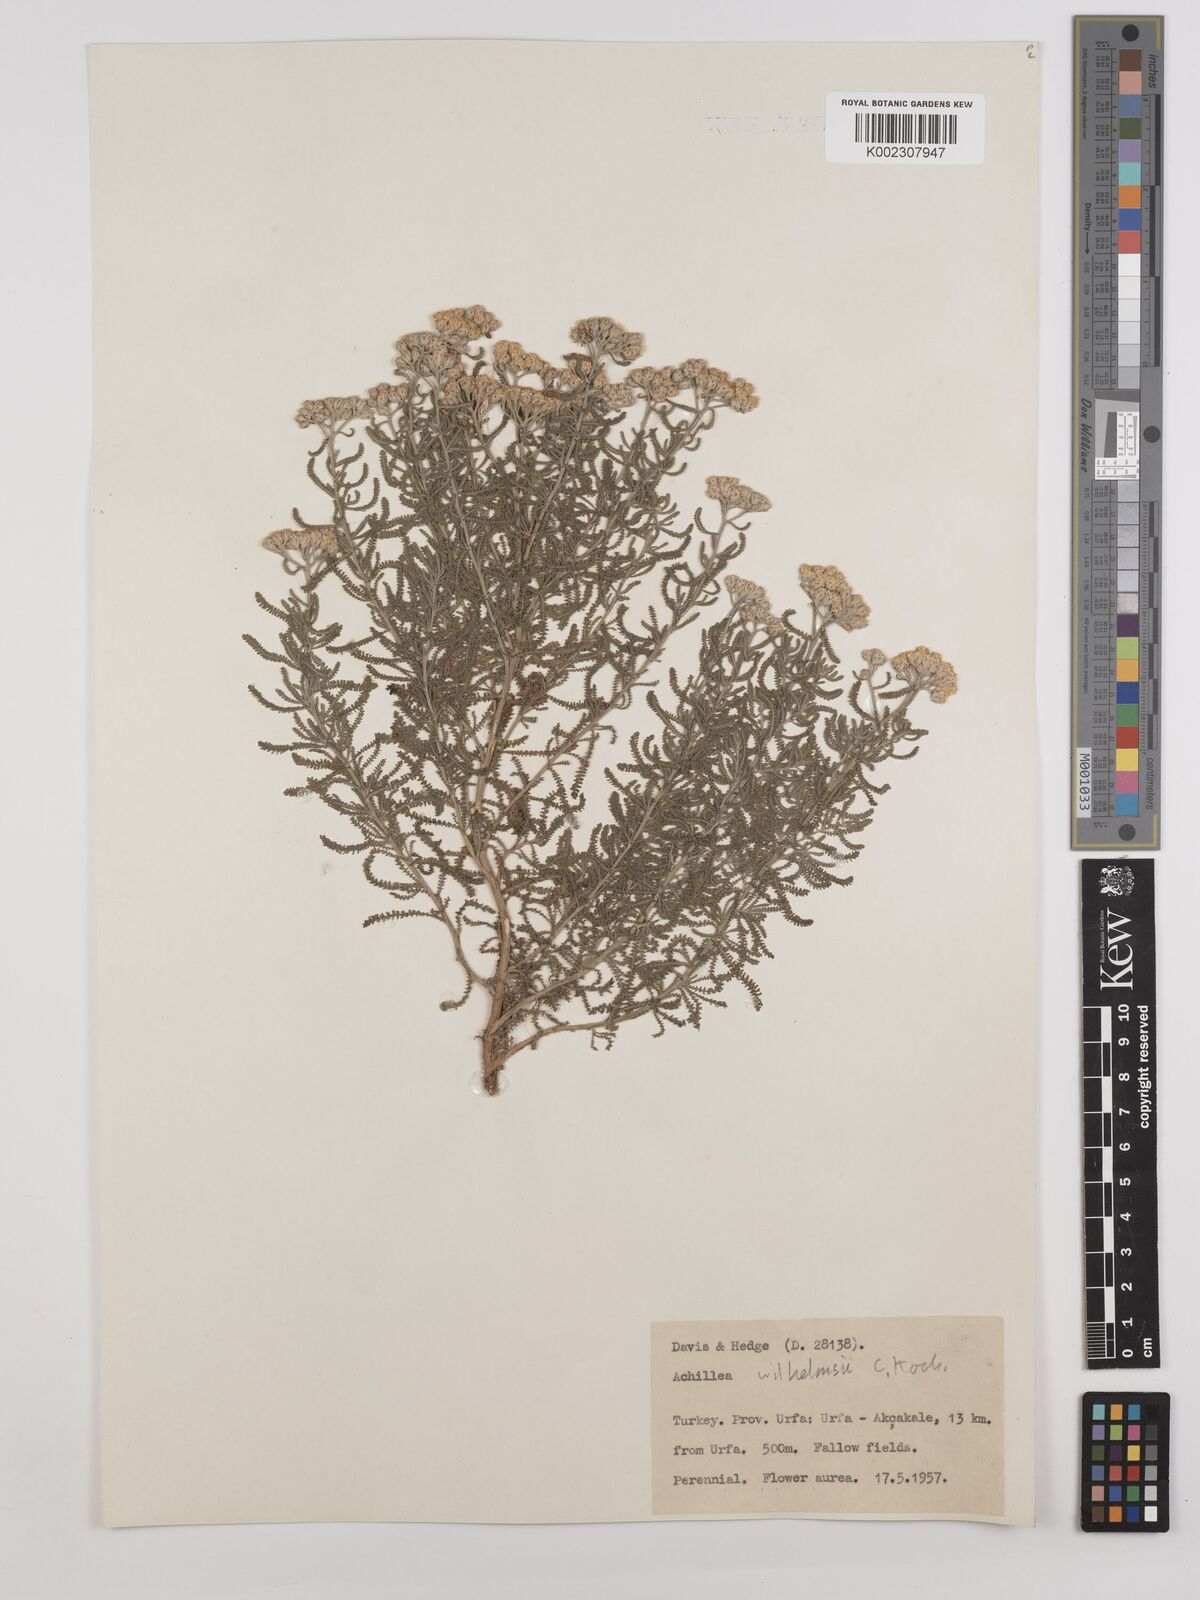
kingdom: Plantae
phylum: Tracheophyta
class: Magnoliopsida
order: Asterales
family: Asteraceae
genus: Achillea
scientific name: Achillea tenuifolia
